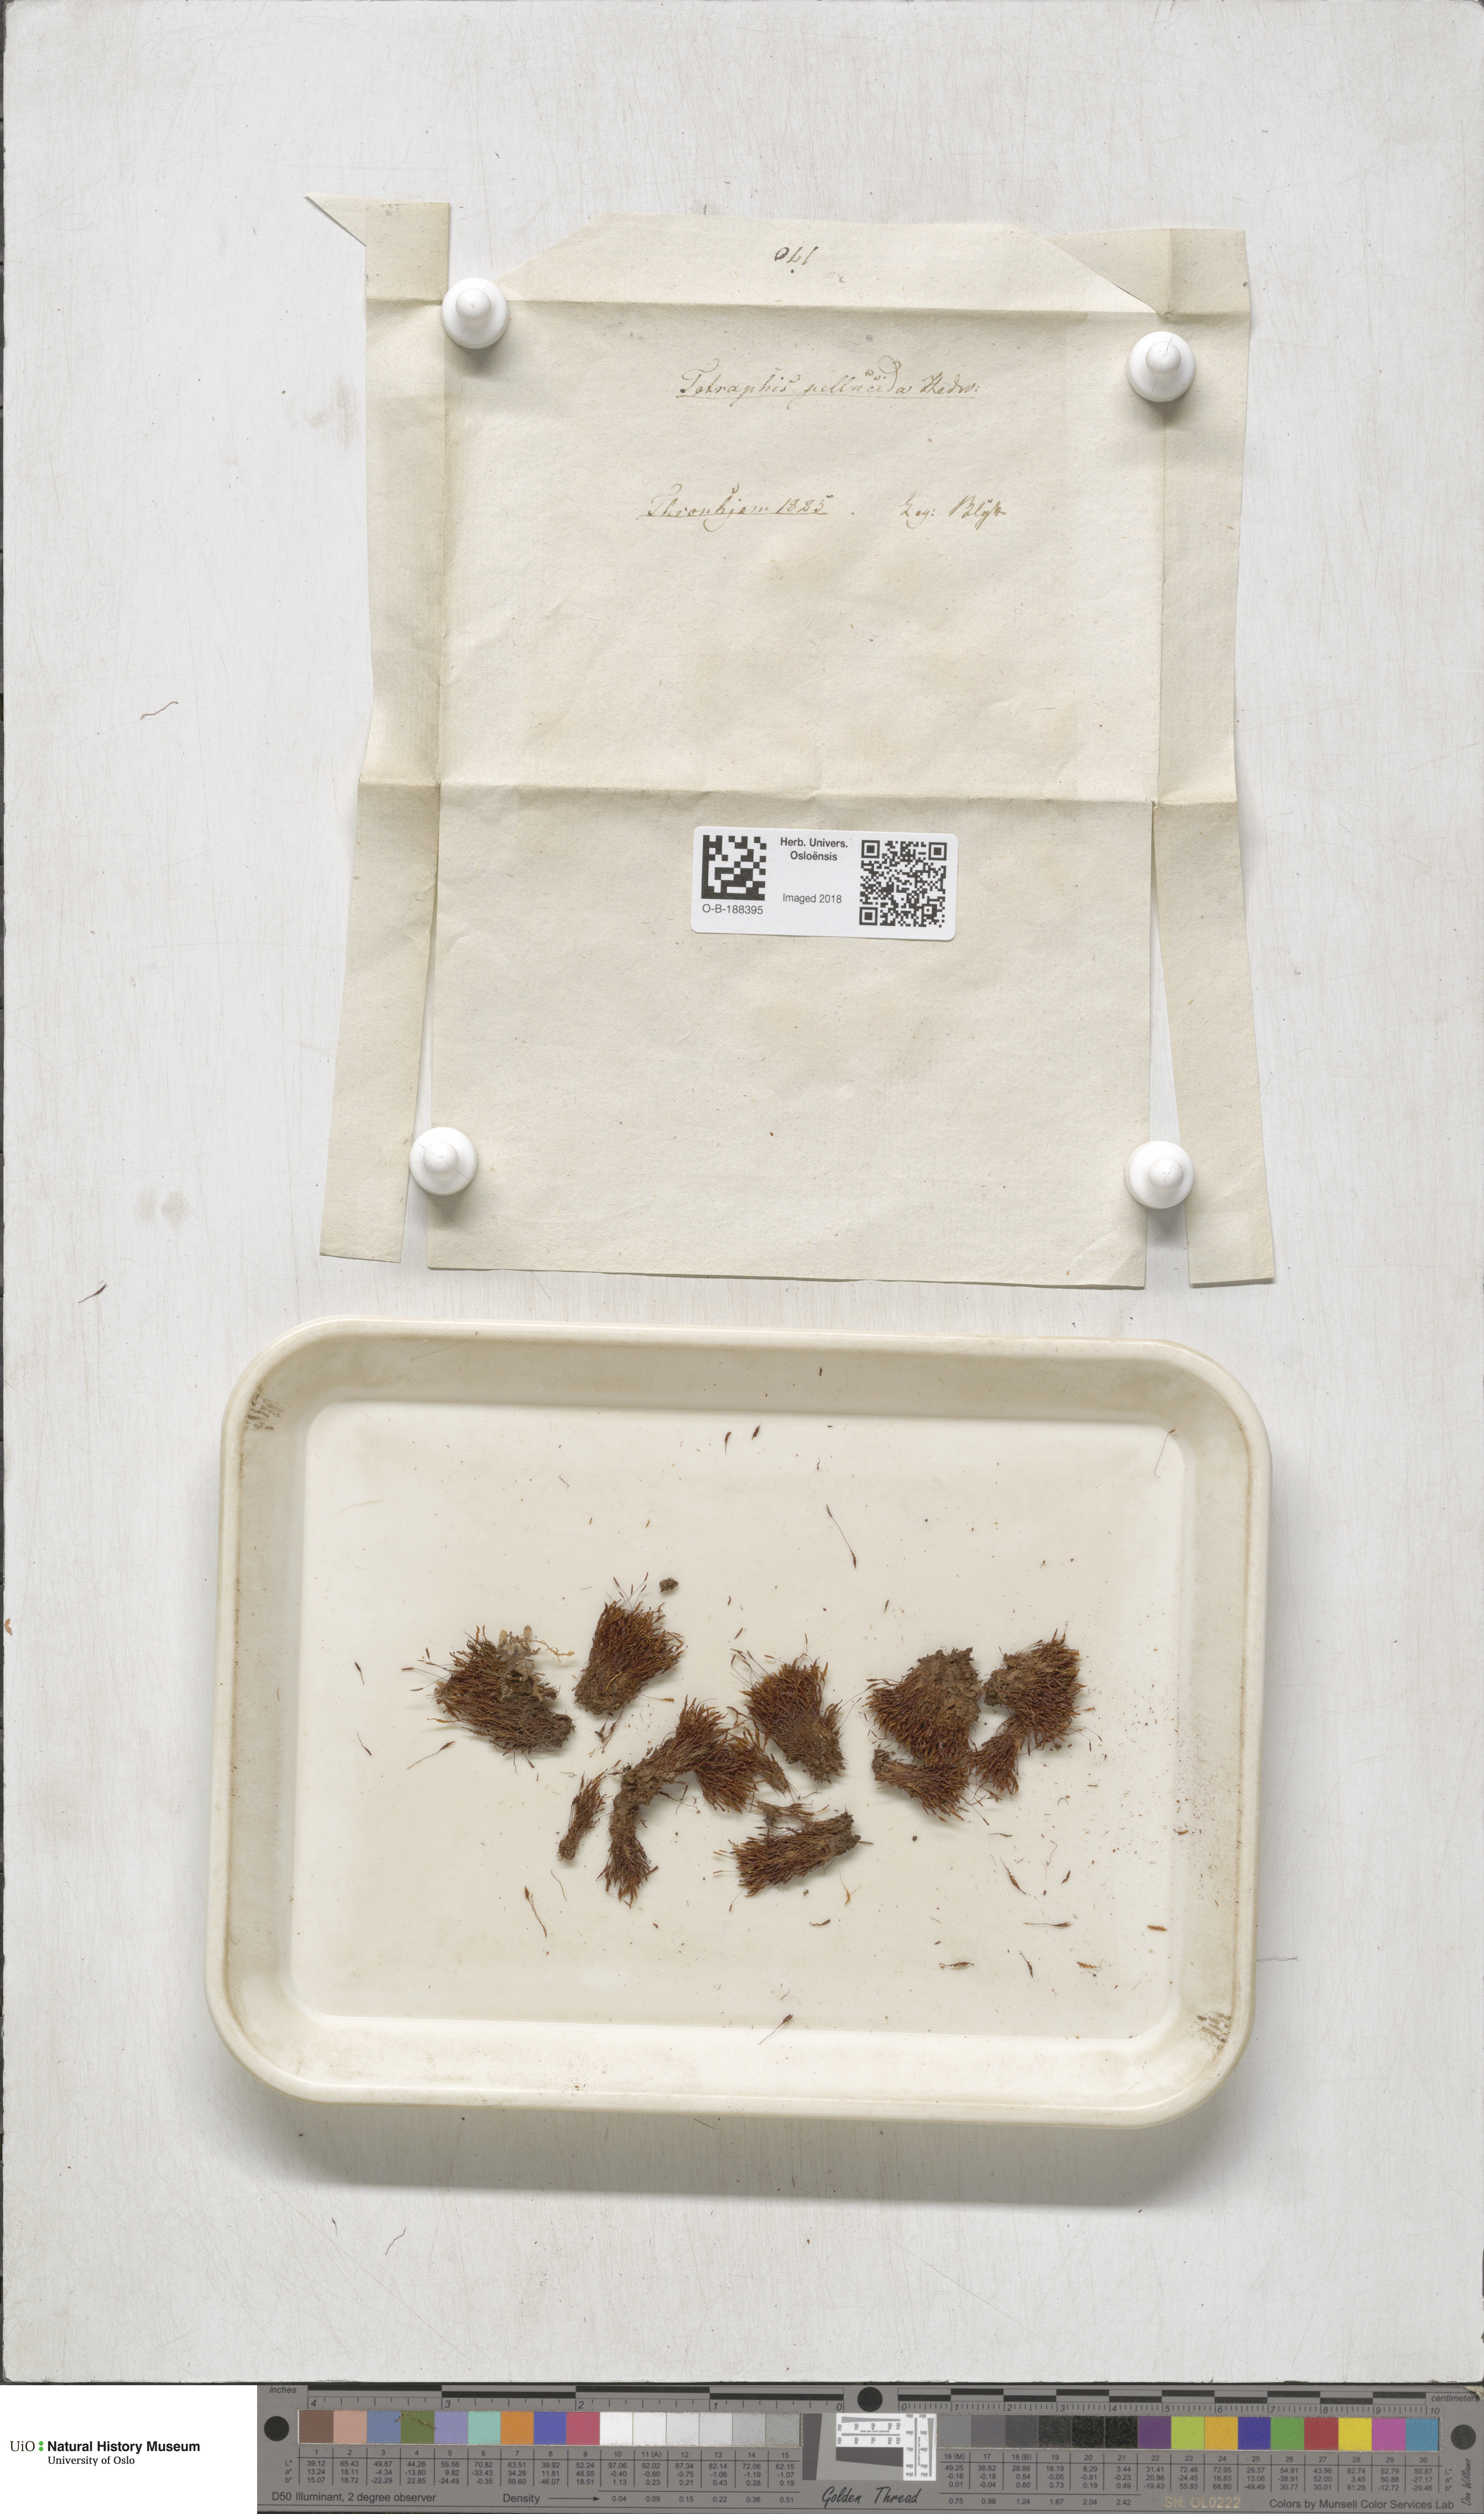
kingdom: Plantae
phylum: Bryophyta
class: Polytrichopsida
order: Tetraphidales
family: Tetraphidaceae
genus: Tetraphis
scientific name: Tetraphis pellucida
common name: Common four-toothed moss
